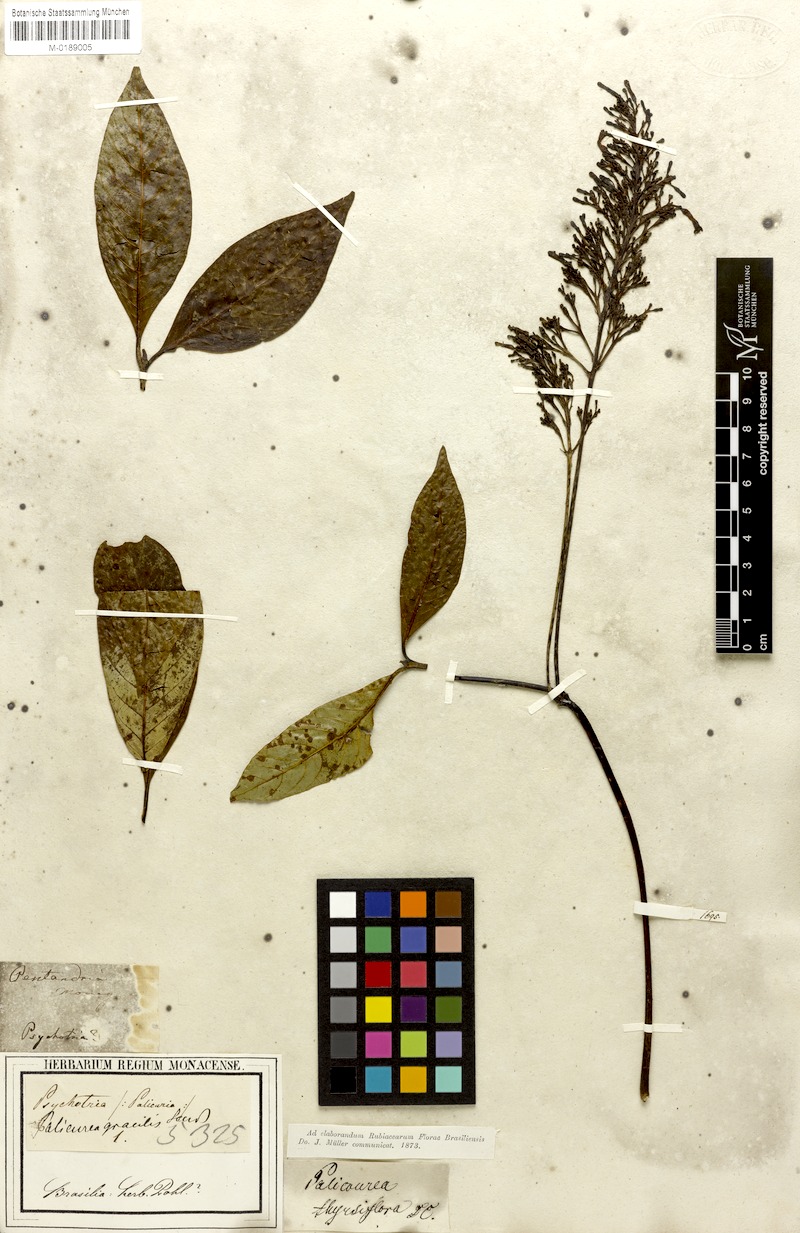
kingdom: Plantae
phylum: Tracheophyta
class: Magnoliopsida
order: Gentianales
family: Rubiaceae
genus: Palicourea
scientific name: Palicourea longipedunculata
